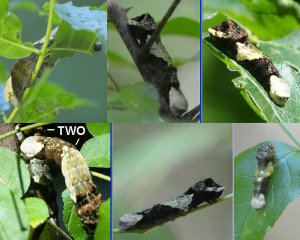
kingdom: Animalia
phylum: Arthropoda
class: Insecta
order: Lepidoptera
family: Papilionidae
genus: Papilio
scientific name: Papilio cresphontes
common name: Eastern Giant Swallowtail
